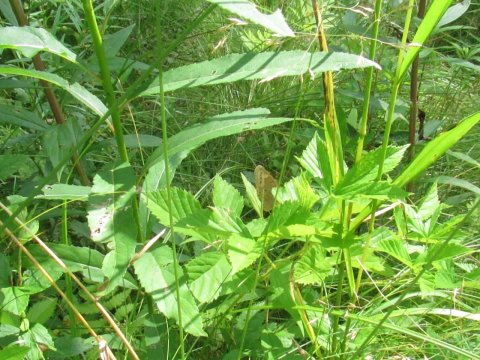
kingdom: Animalia
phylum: Arthropoda
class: Insecta
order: Lepidoptera
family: Nymphalidae
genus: Lethe
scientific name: Lethe eurydice
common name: Eyed Brown
